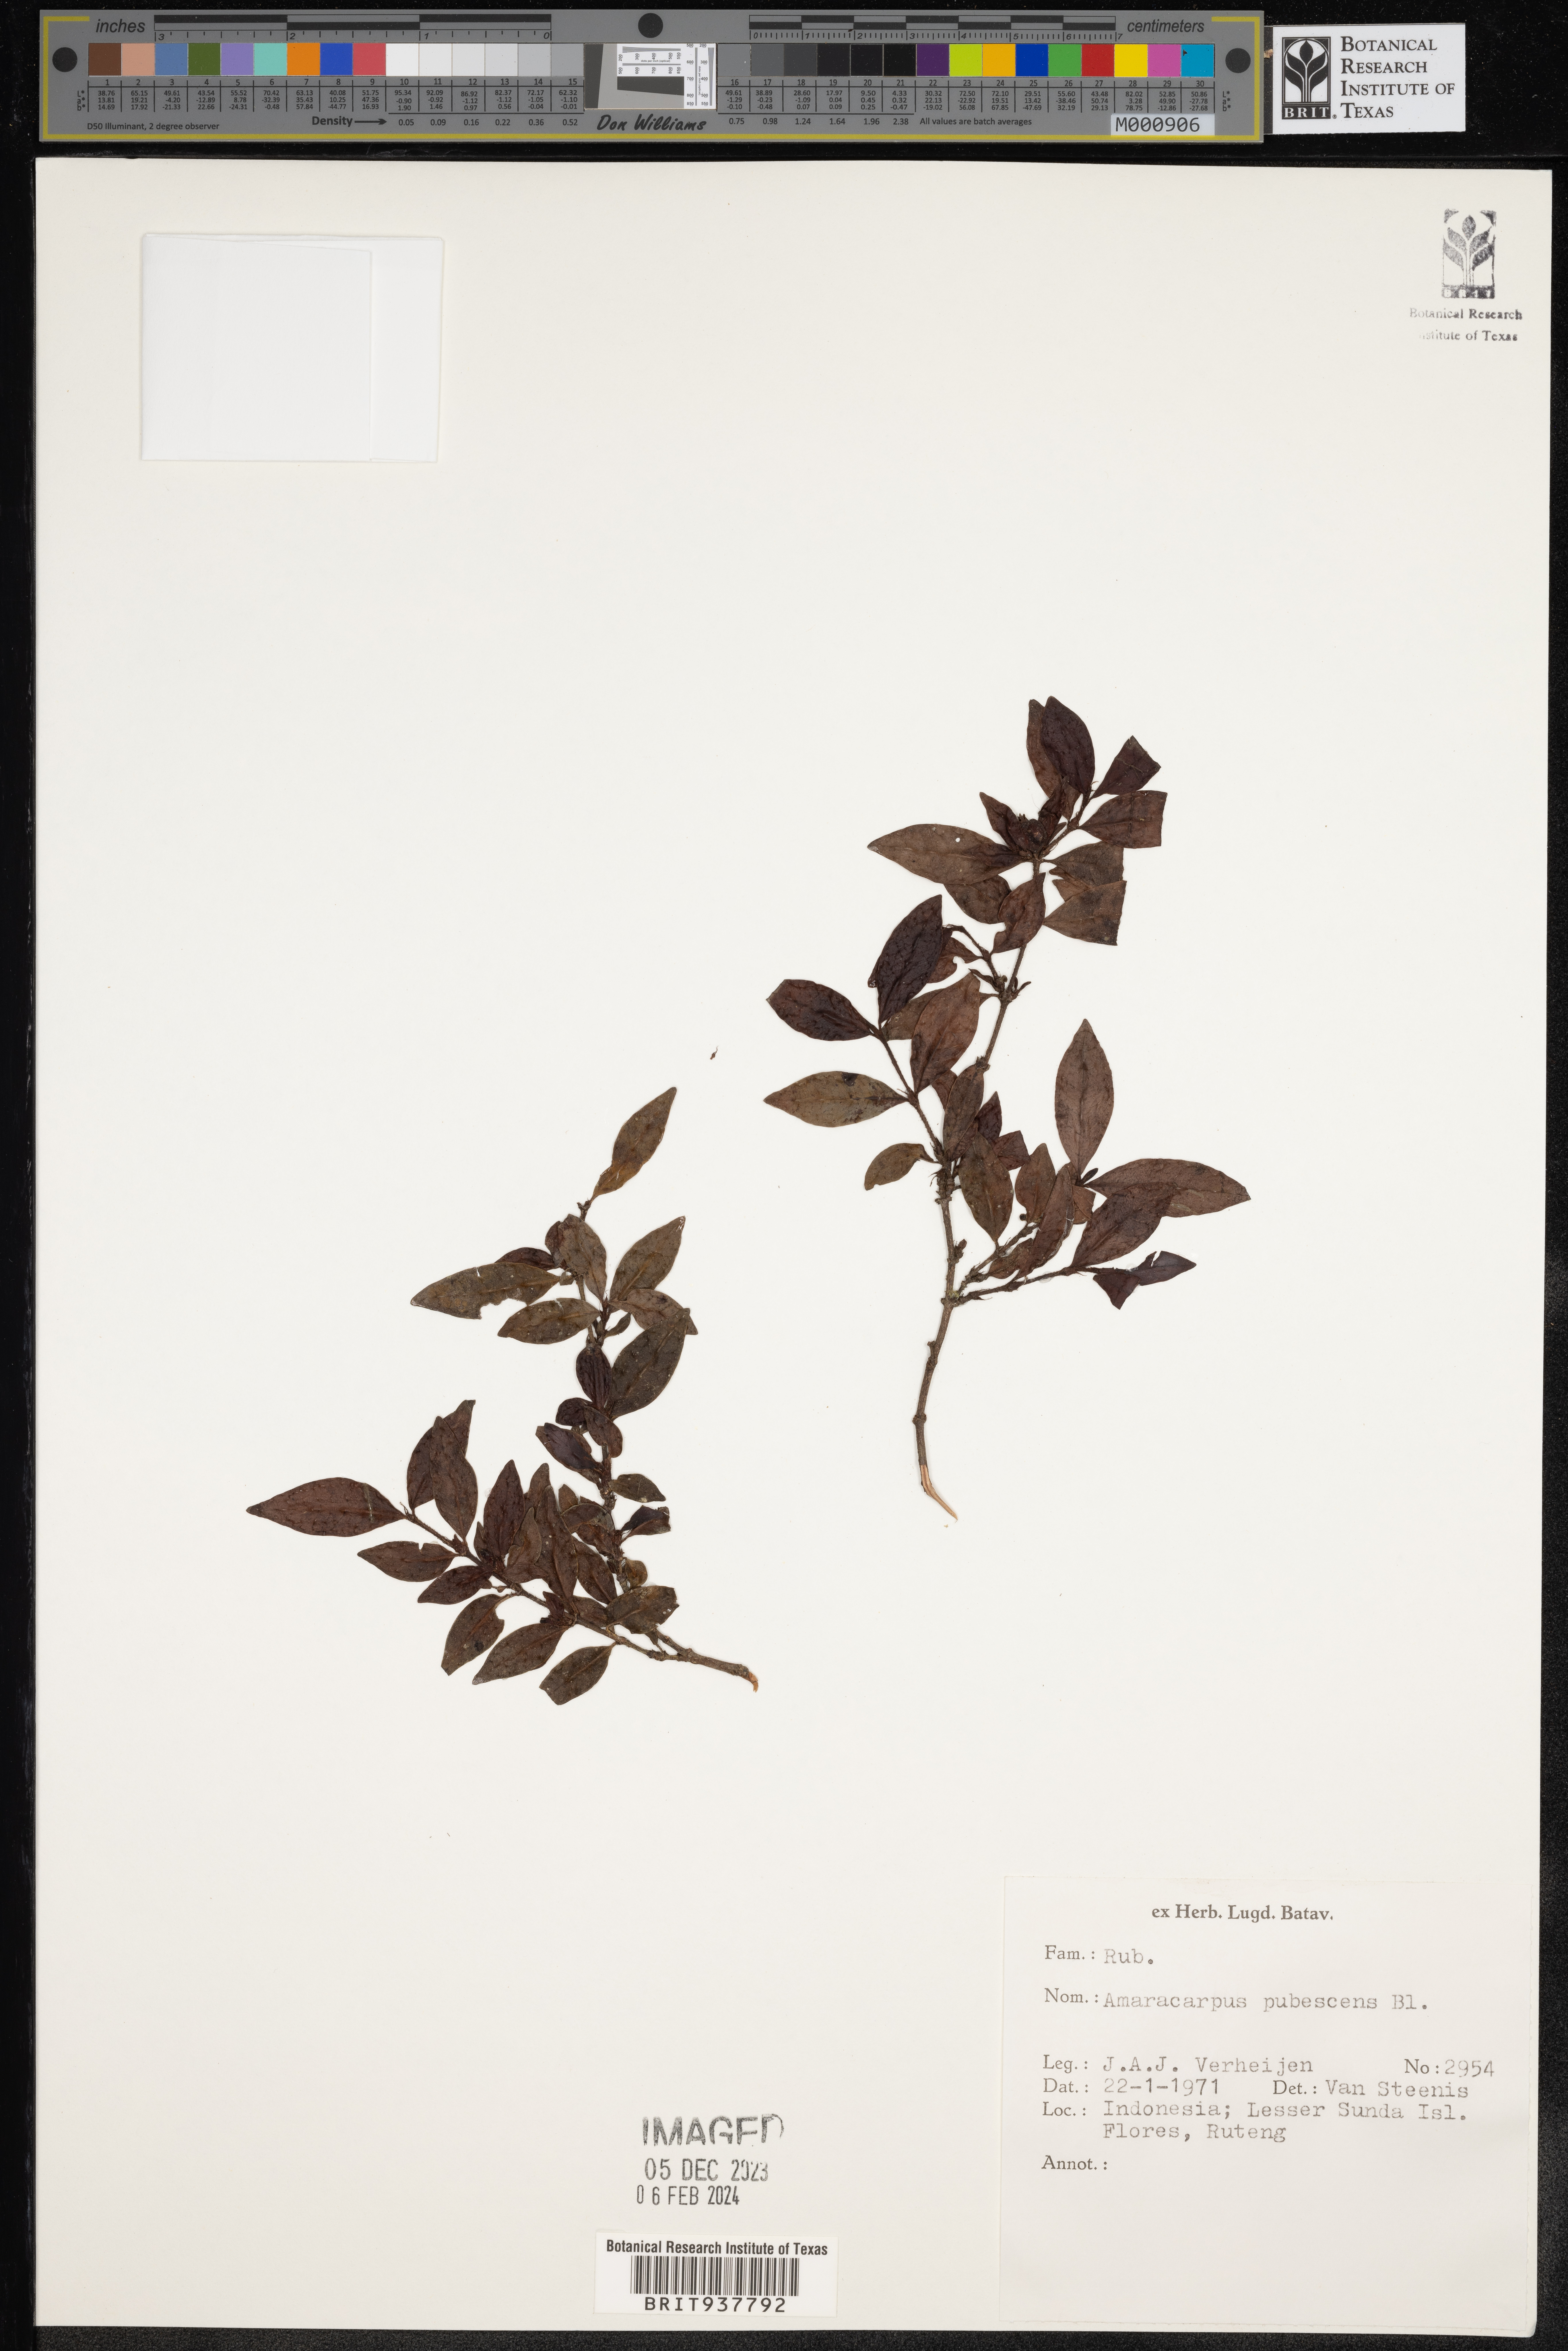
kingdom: Plantae
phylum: Tracheophyta
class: Magnoliopsida
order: Gentianales
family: Rubiaceae
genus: Amaracarpus
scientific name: Amaracarpus
